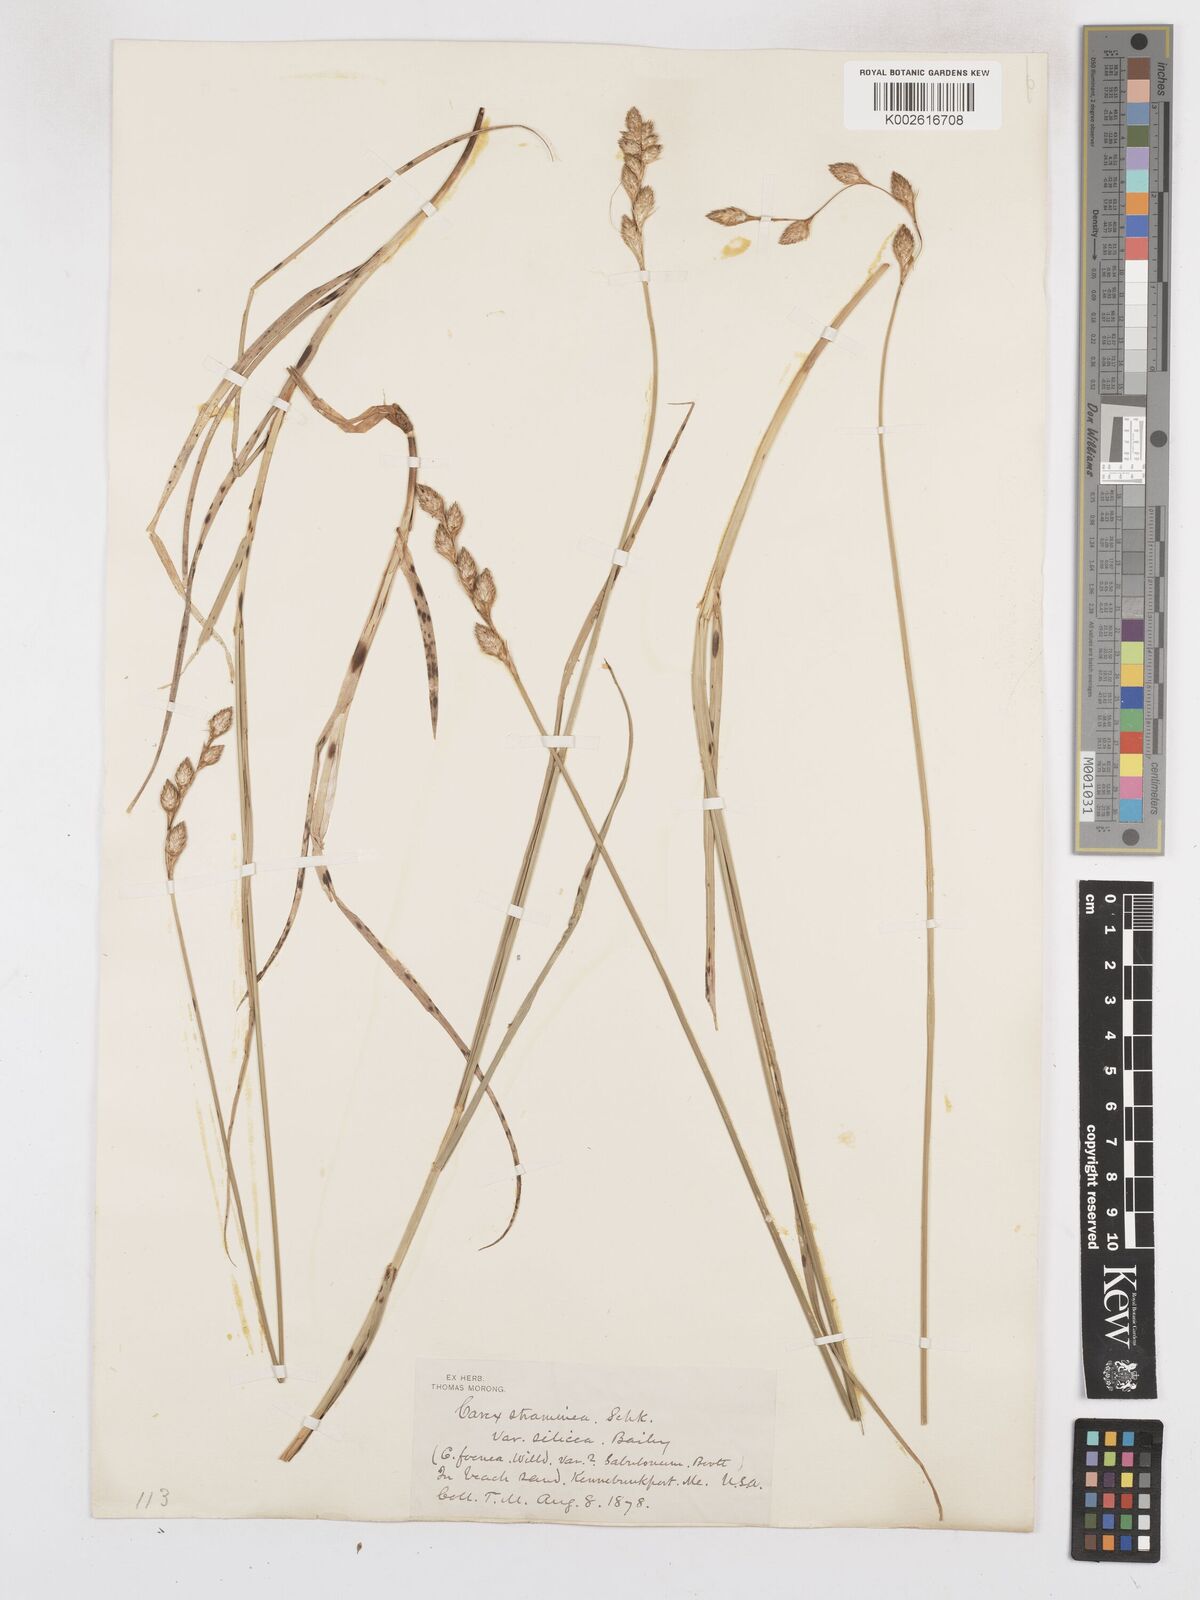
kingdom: Plantae
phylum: Tracheophyta
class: Liliopsida
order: Poales
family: Cyperaceae
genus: Carex
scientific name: Carex argyrantha
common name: Silvery-flowered sedge
